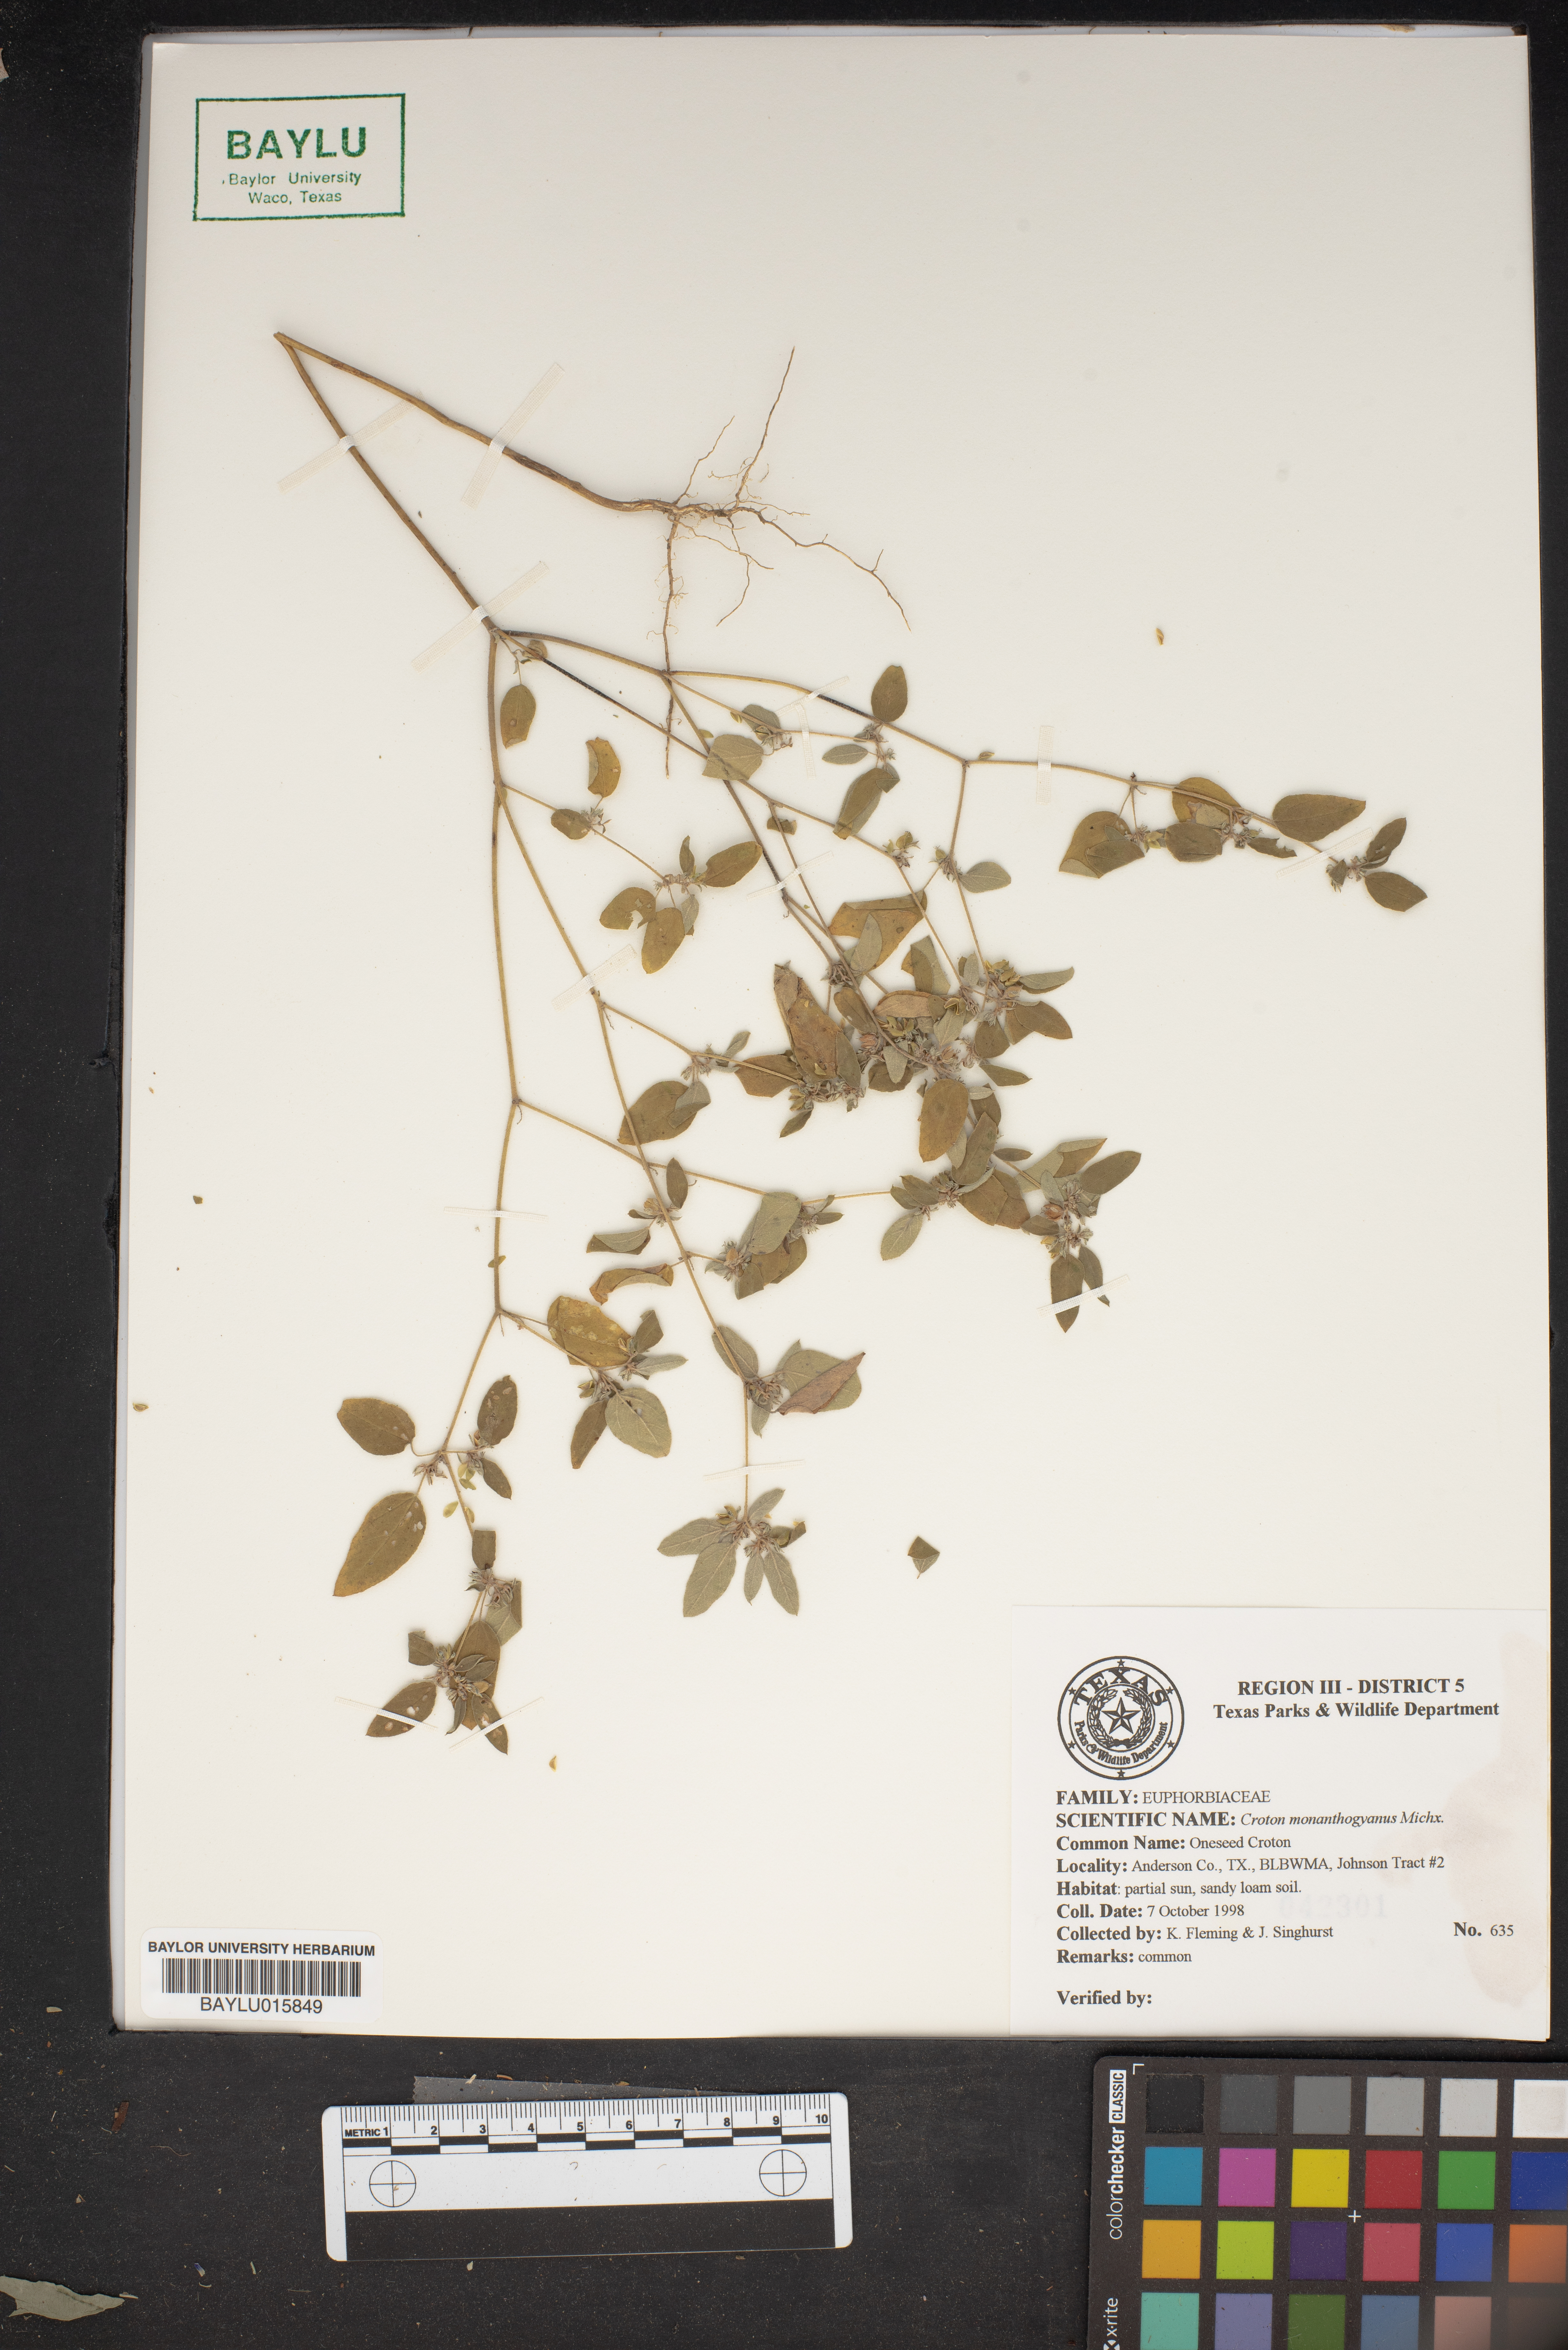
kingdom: Plantae
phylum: Tracheophyta
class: Magnoliopsida
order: Malpighiales
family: Euphorbiaceae
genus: Croton
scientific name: Croton monanthogynus
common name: One-seed croton
